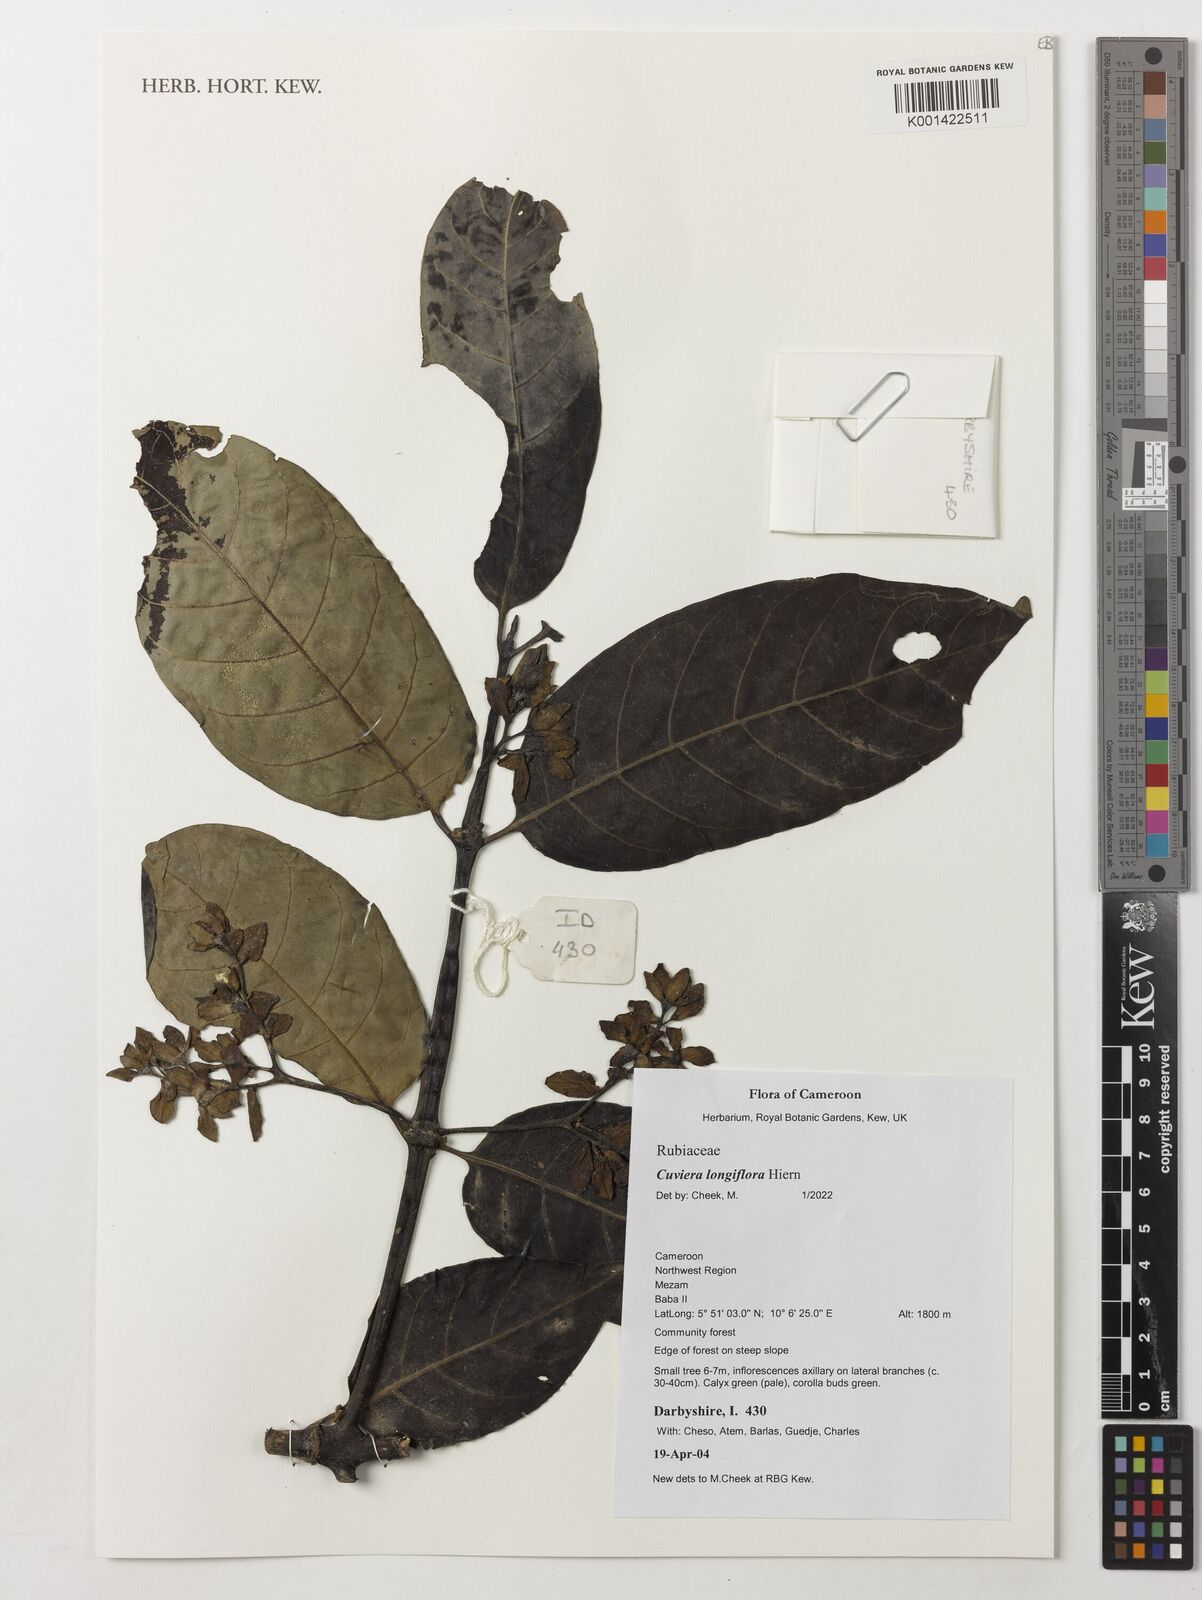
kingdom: Plantae
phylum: Tracheophyta
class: Magnoliopsida
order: Gentianales
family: Rubiaceae
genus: Cuviera
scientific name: Cuviera longiflora
